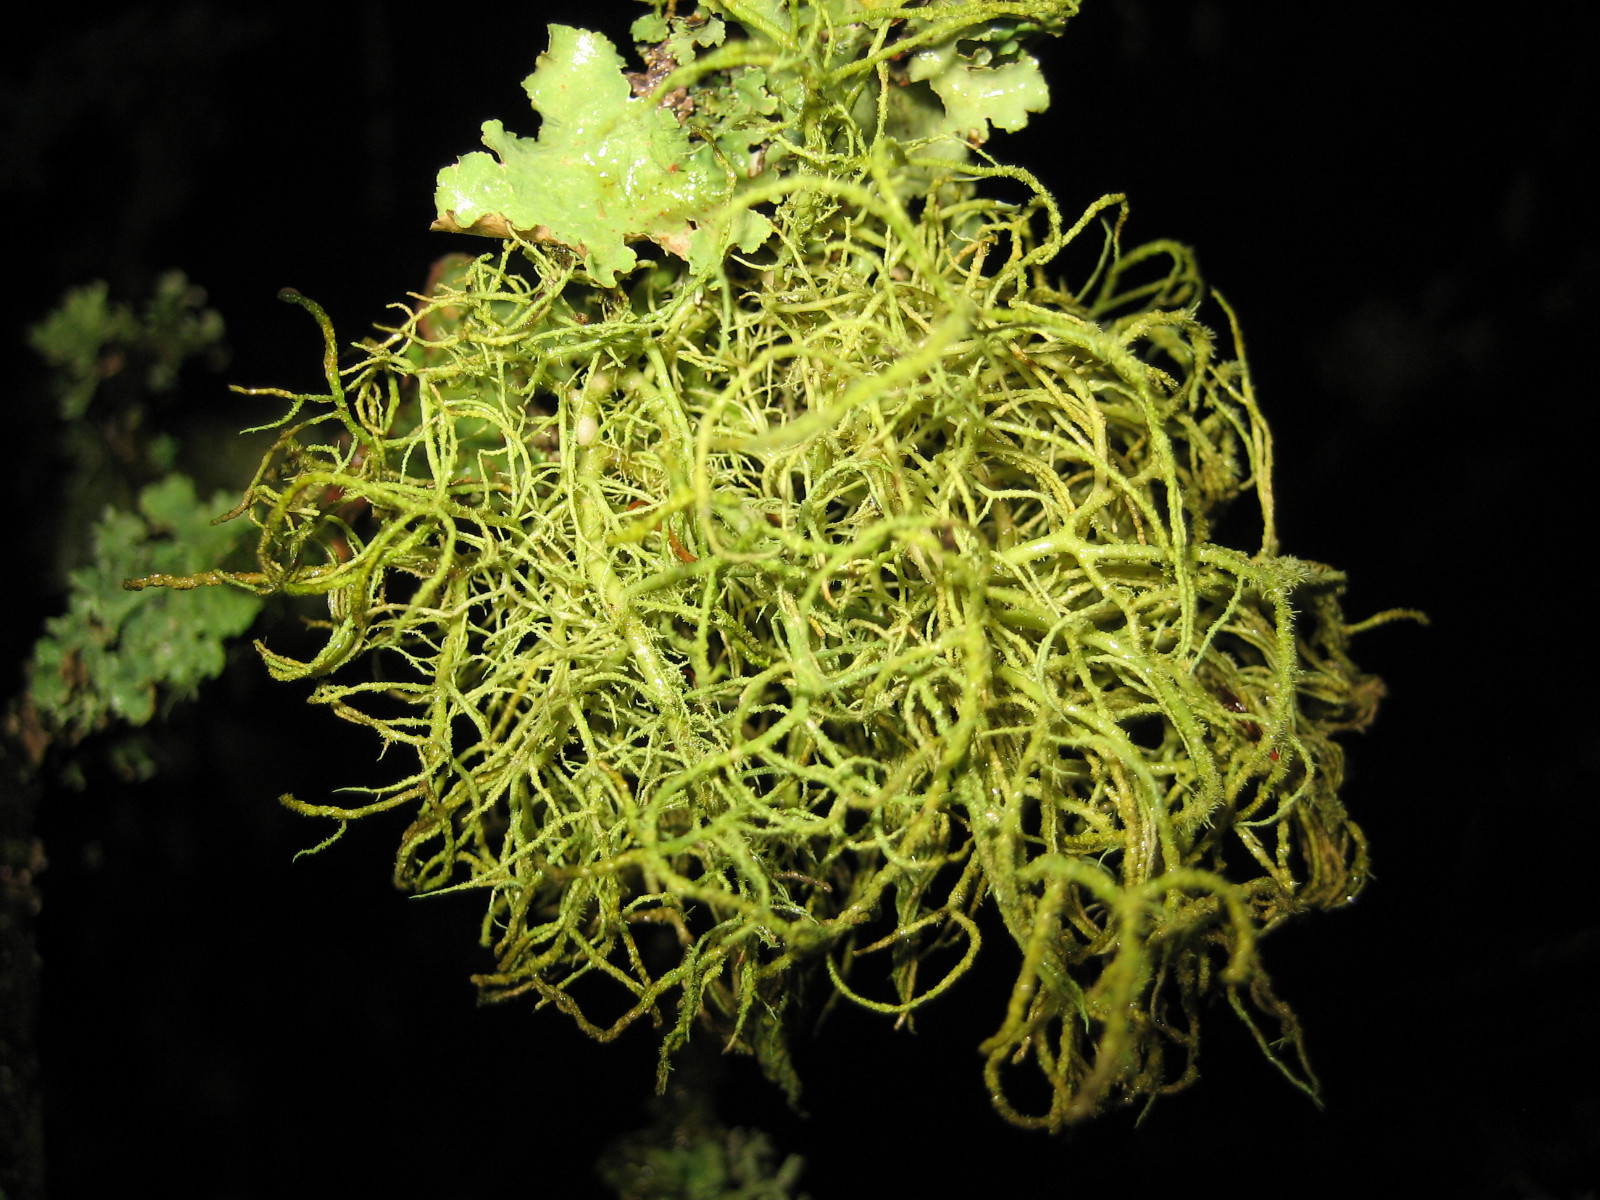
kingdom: Fungi
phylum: Ascomycota
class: Lecanoromycetes
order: Lecanorales
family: Parmeliaceae
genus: Usnea
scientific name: Usnea hirta
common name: liden skæglav
